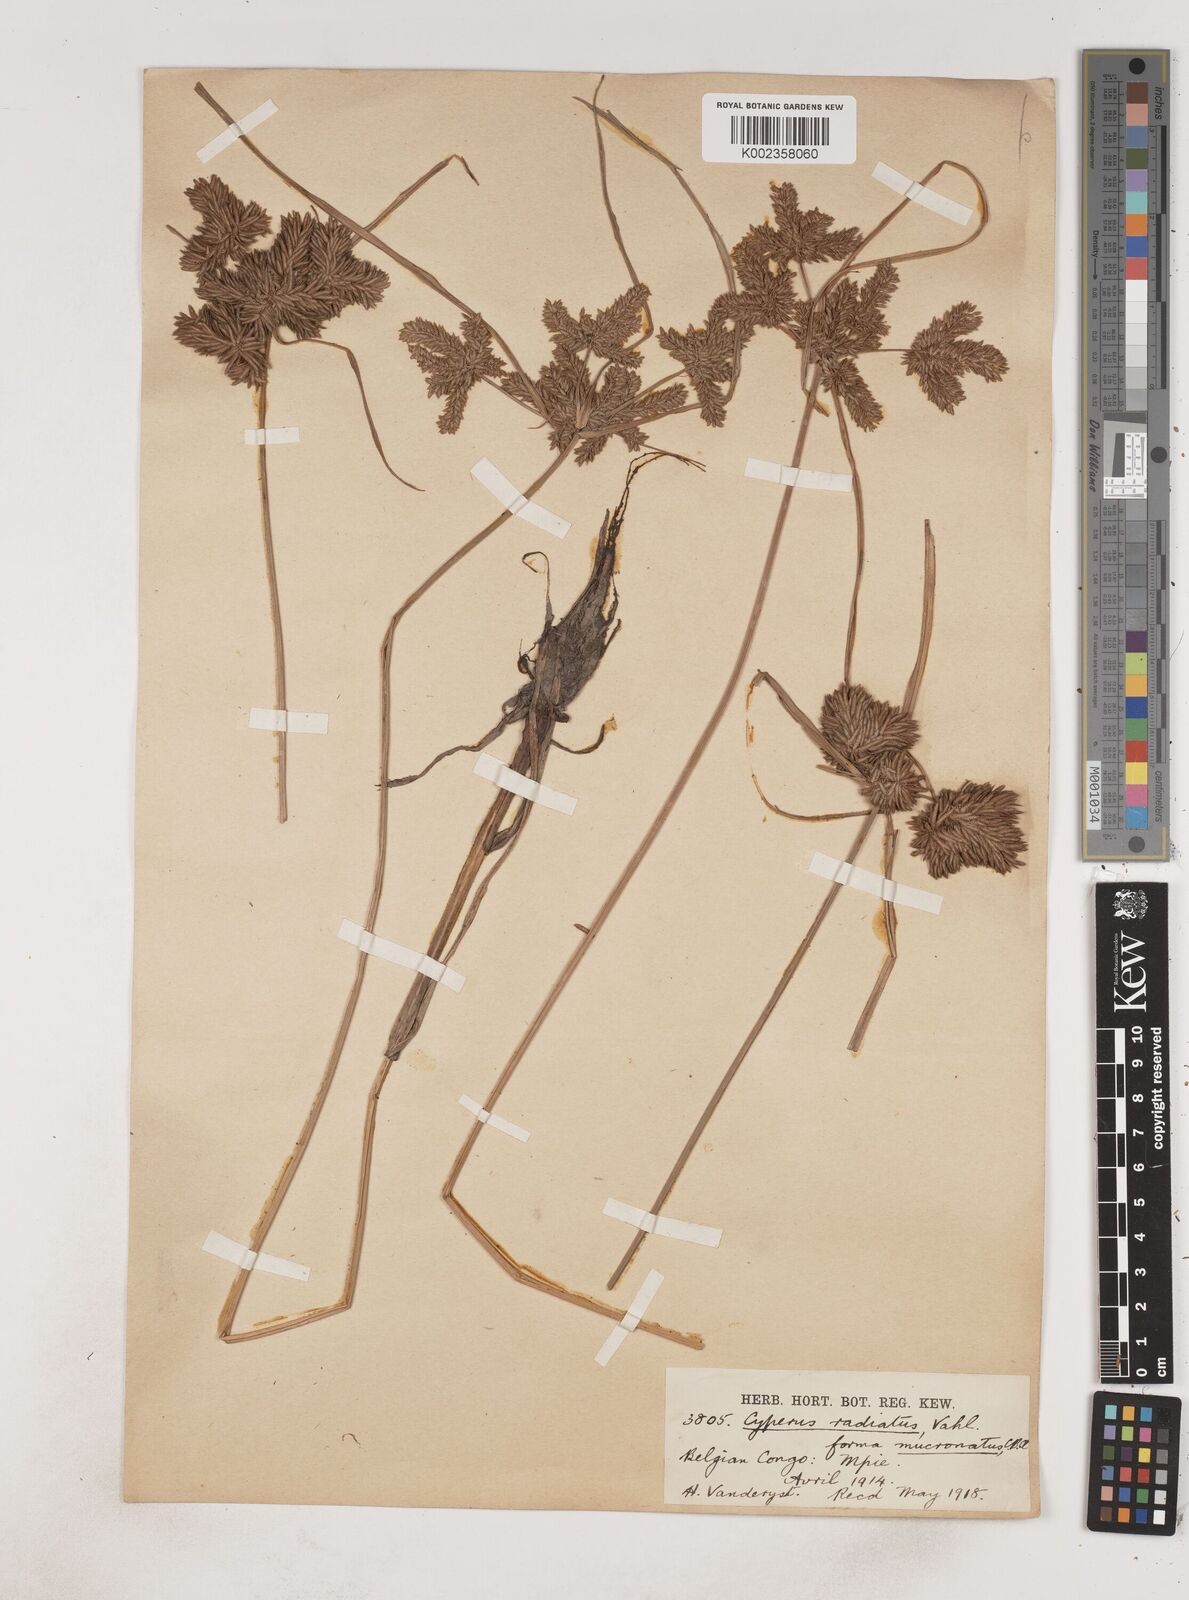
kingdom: Plantae
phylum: Tracheophyta
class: Liliopsida
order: Poales
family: Cyperaceae
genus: Cyperus
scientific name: Cyperus imbricatus
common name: Shingle flatsedge
